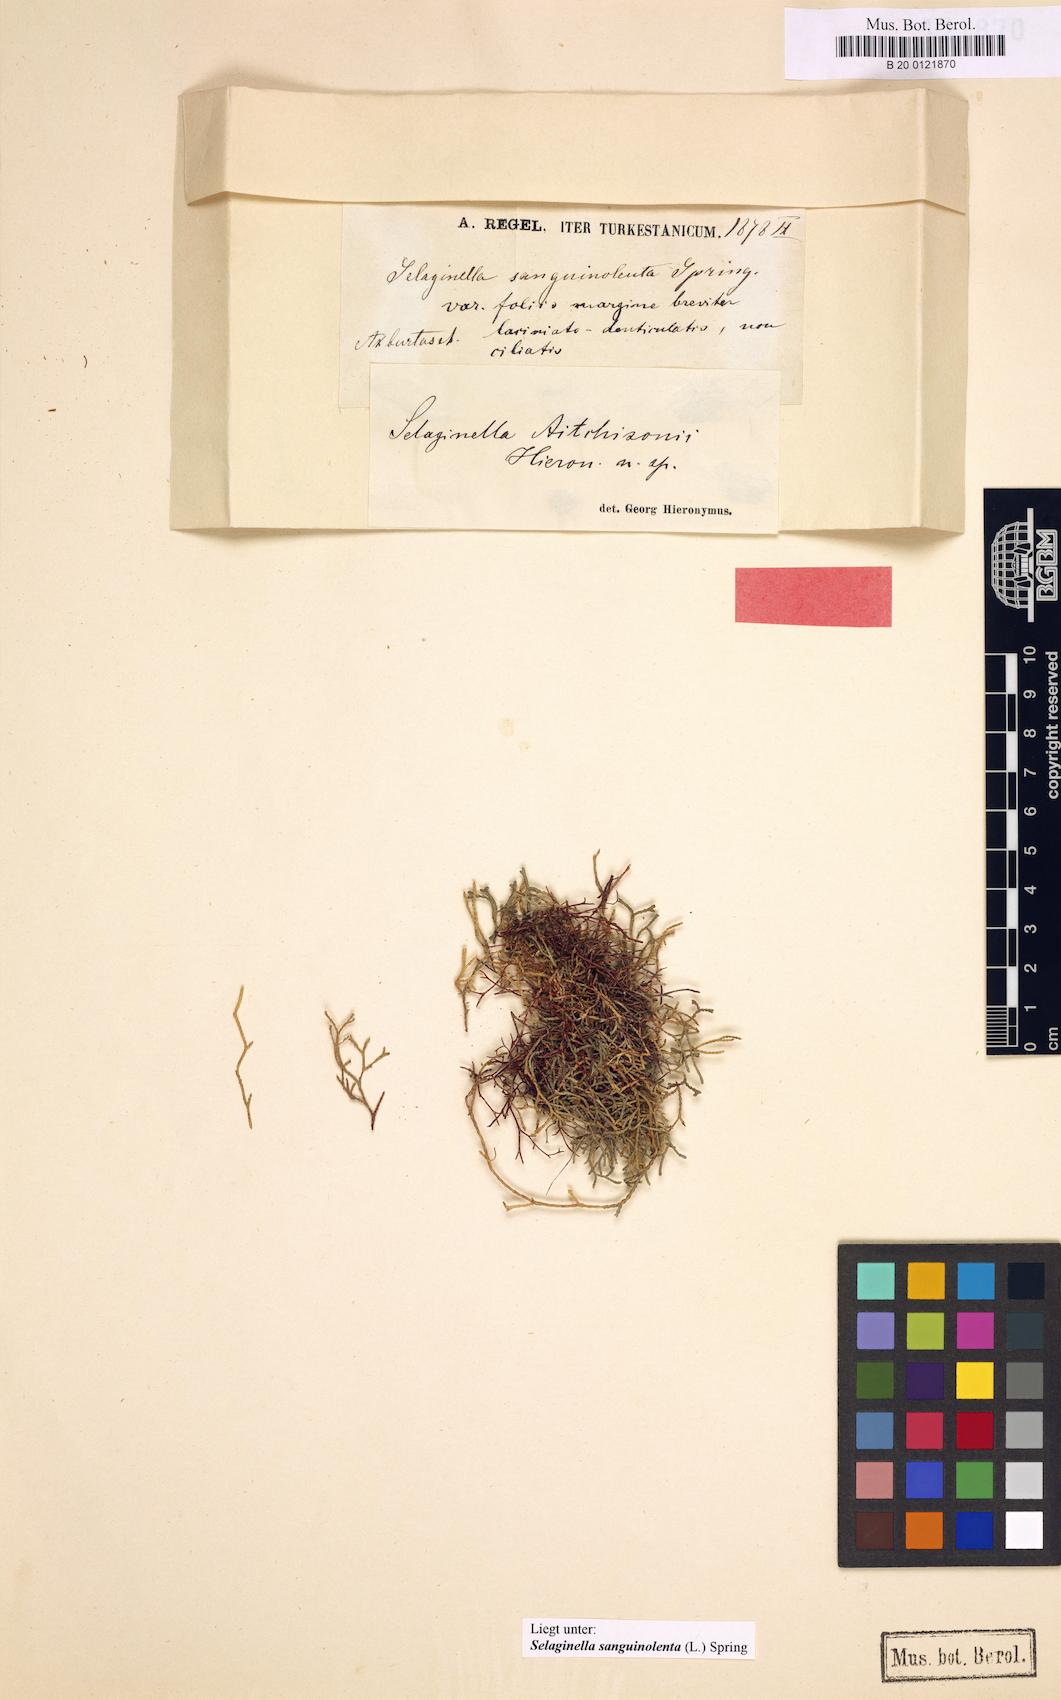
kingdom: Plantae
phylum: Tracheophyta
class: Lycopodiopsida
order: Selaginellales
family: Selaginellaceae
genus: Selaginella
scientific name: Selaginella sanguinolenta
